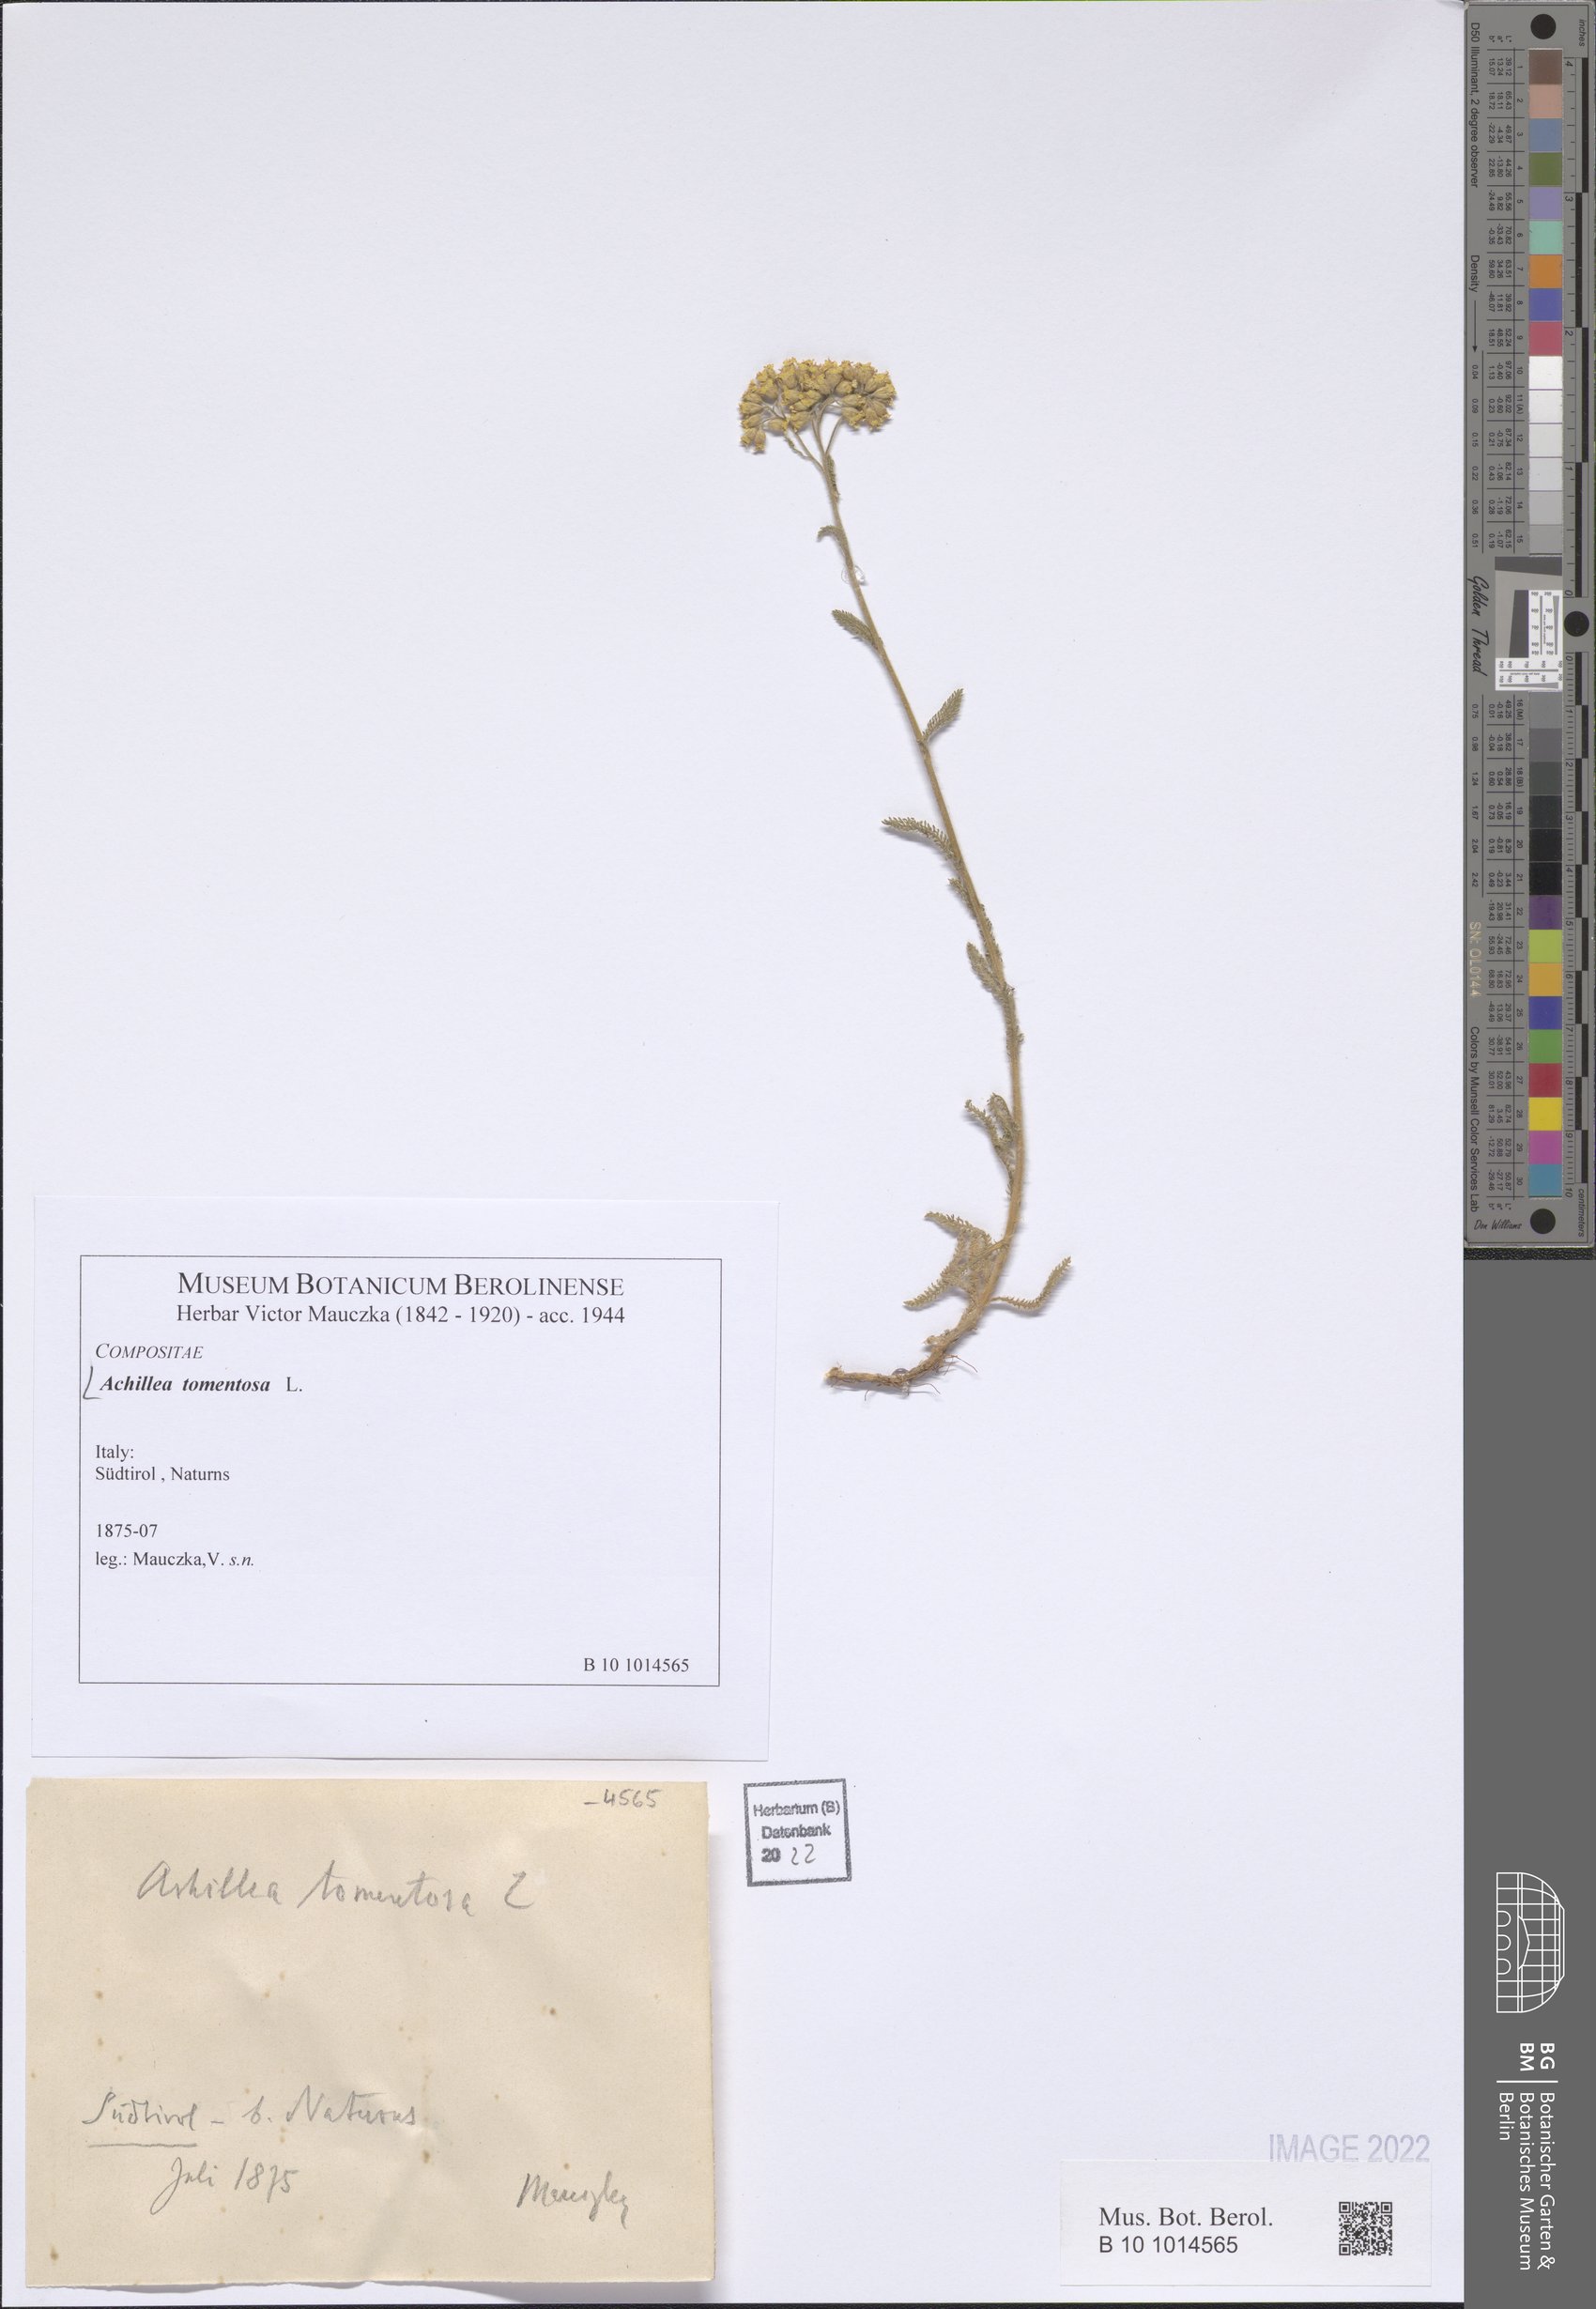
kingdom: Plantae
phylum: Tracheophyta
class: Magnoliopsida
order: Asterales
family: Asteraceae
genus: Achillea
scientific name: Achillea tomentosa
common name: Yellow milfoil
